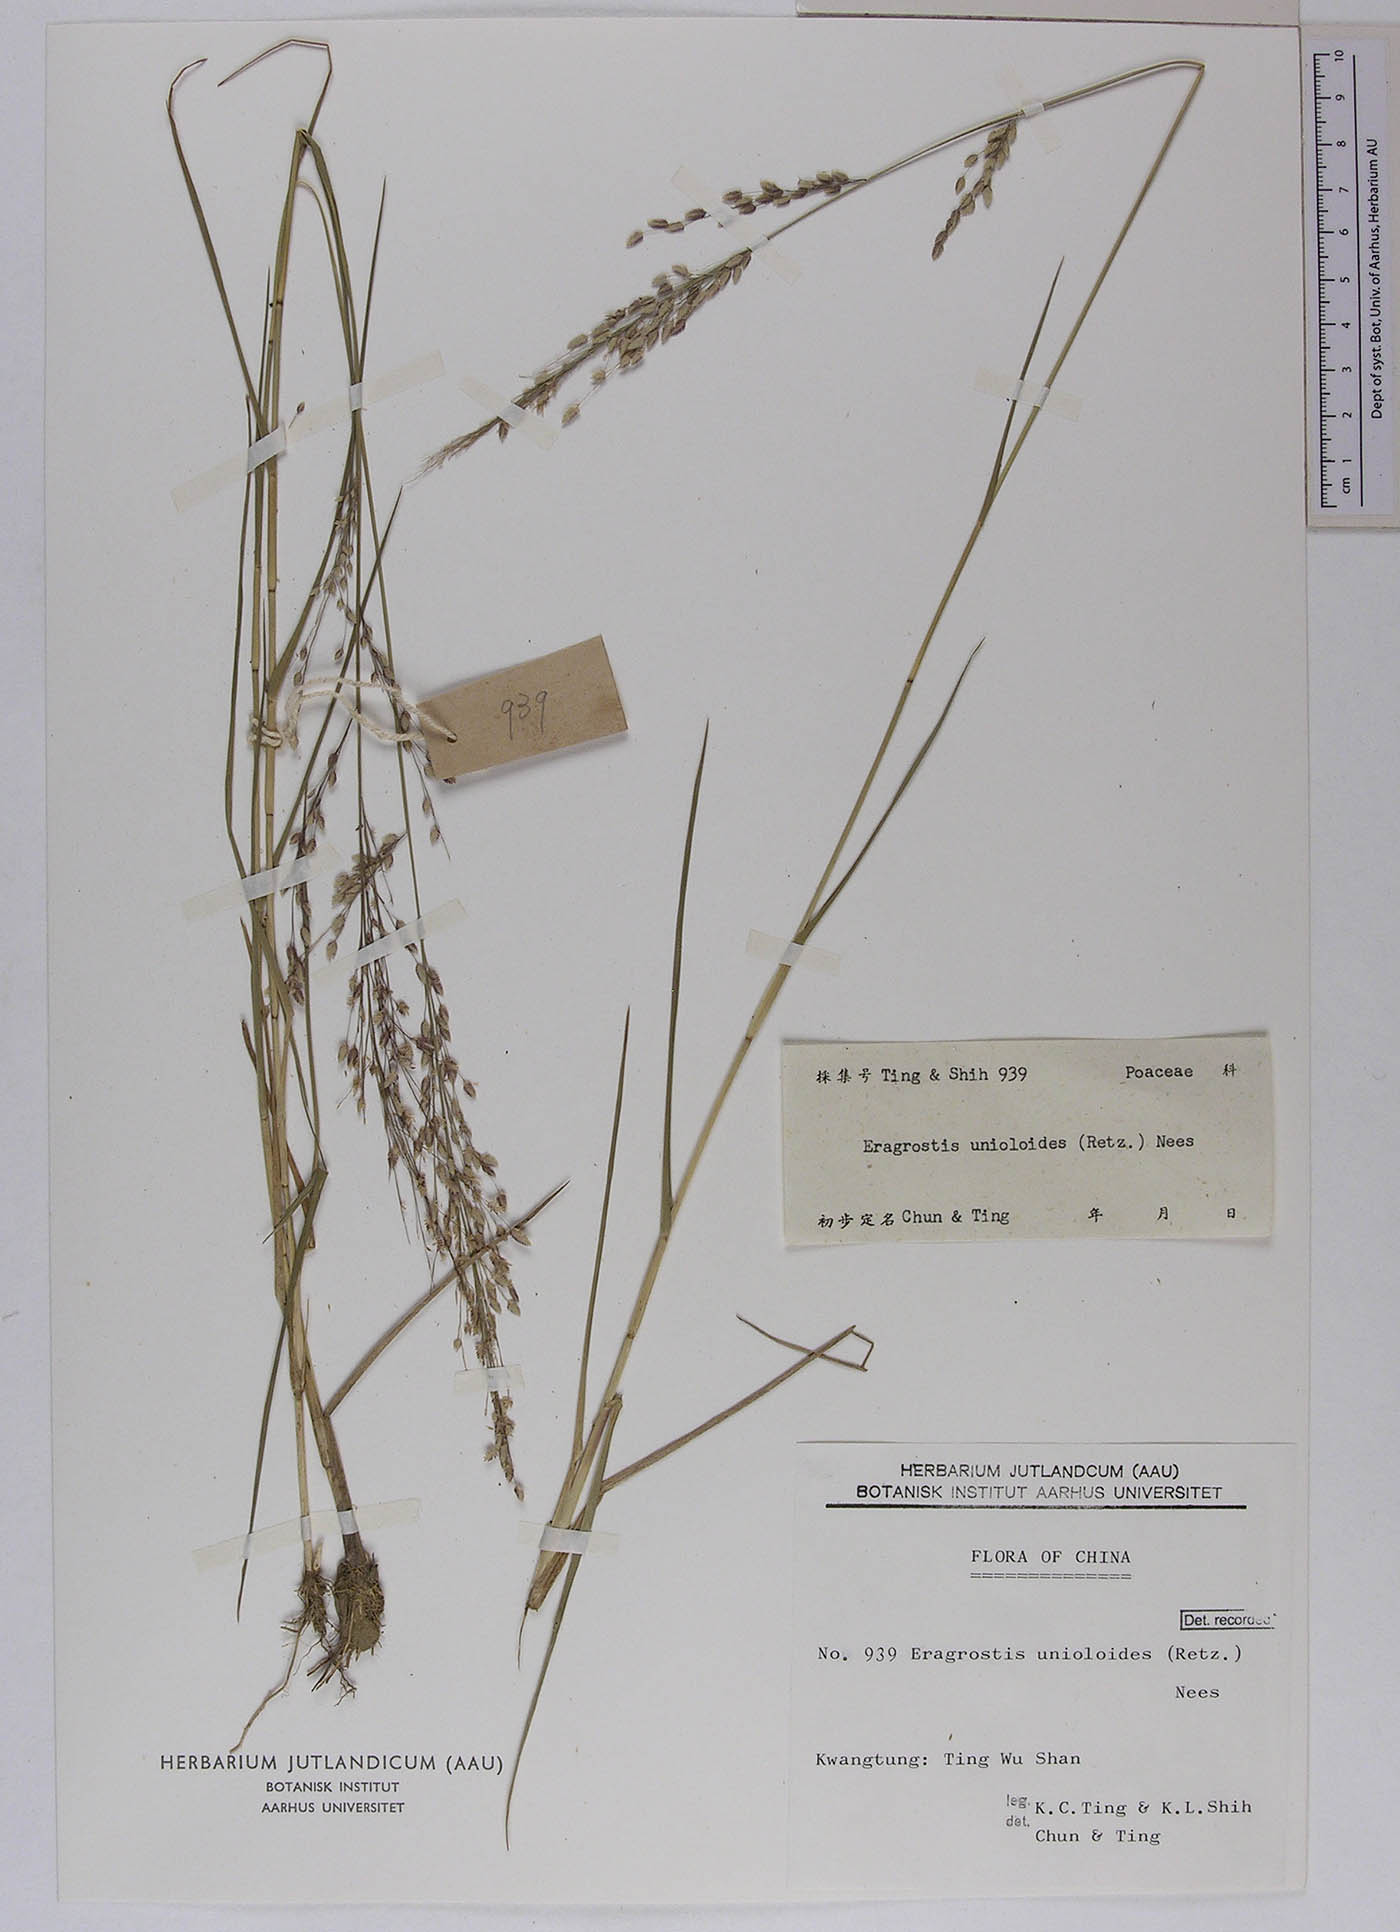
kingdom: Plantae
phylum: Tracheophyta
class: Liliopsida
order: Poales
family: Poaceae
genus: Eragrostis
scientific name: Eragrostis unioloides
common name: Chinese lovegrass
